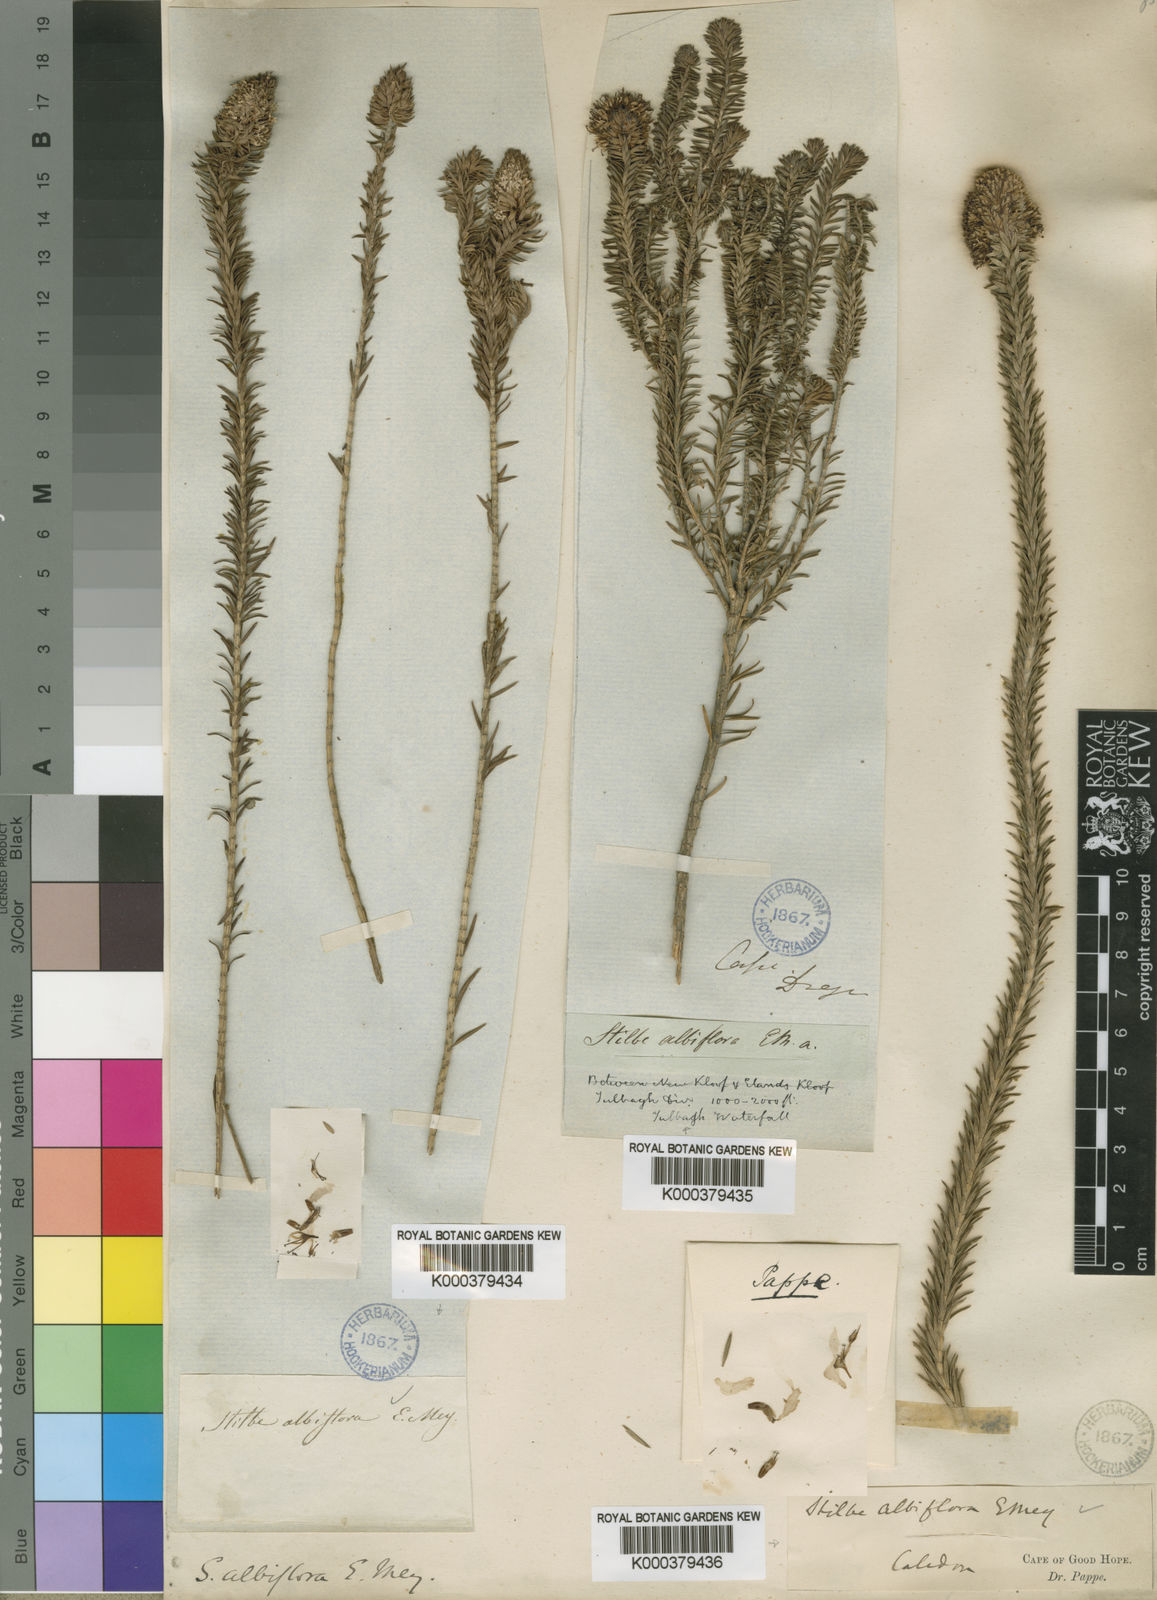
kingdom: Plantae
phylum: Tracheophyta
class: Magnoliopsida
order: Lamiales
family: Stilbaceae
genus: Stilbe
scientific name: Stilbe albiflora
